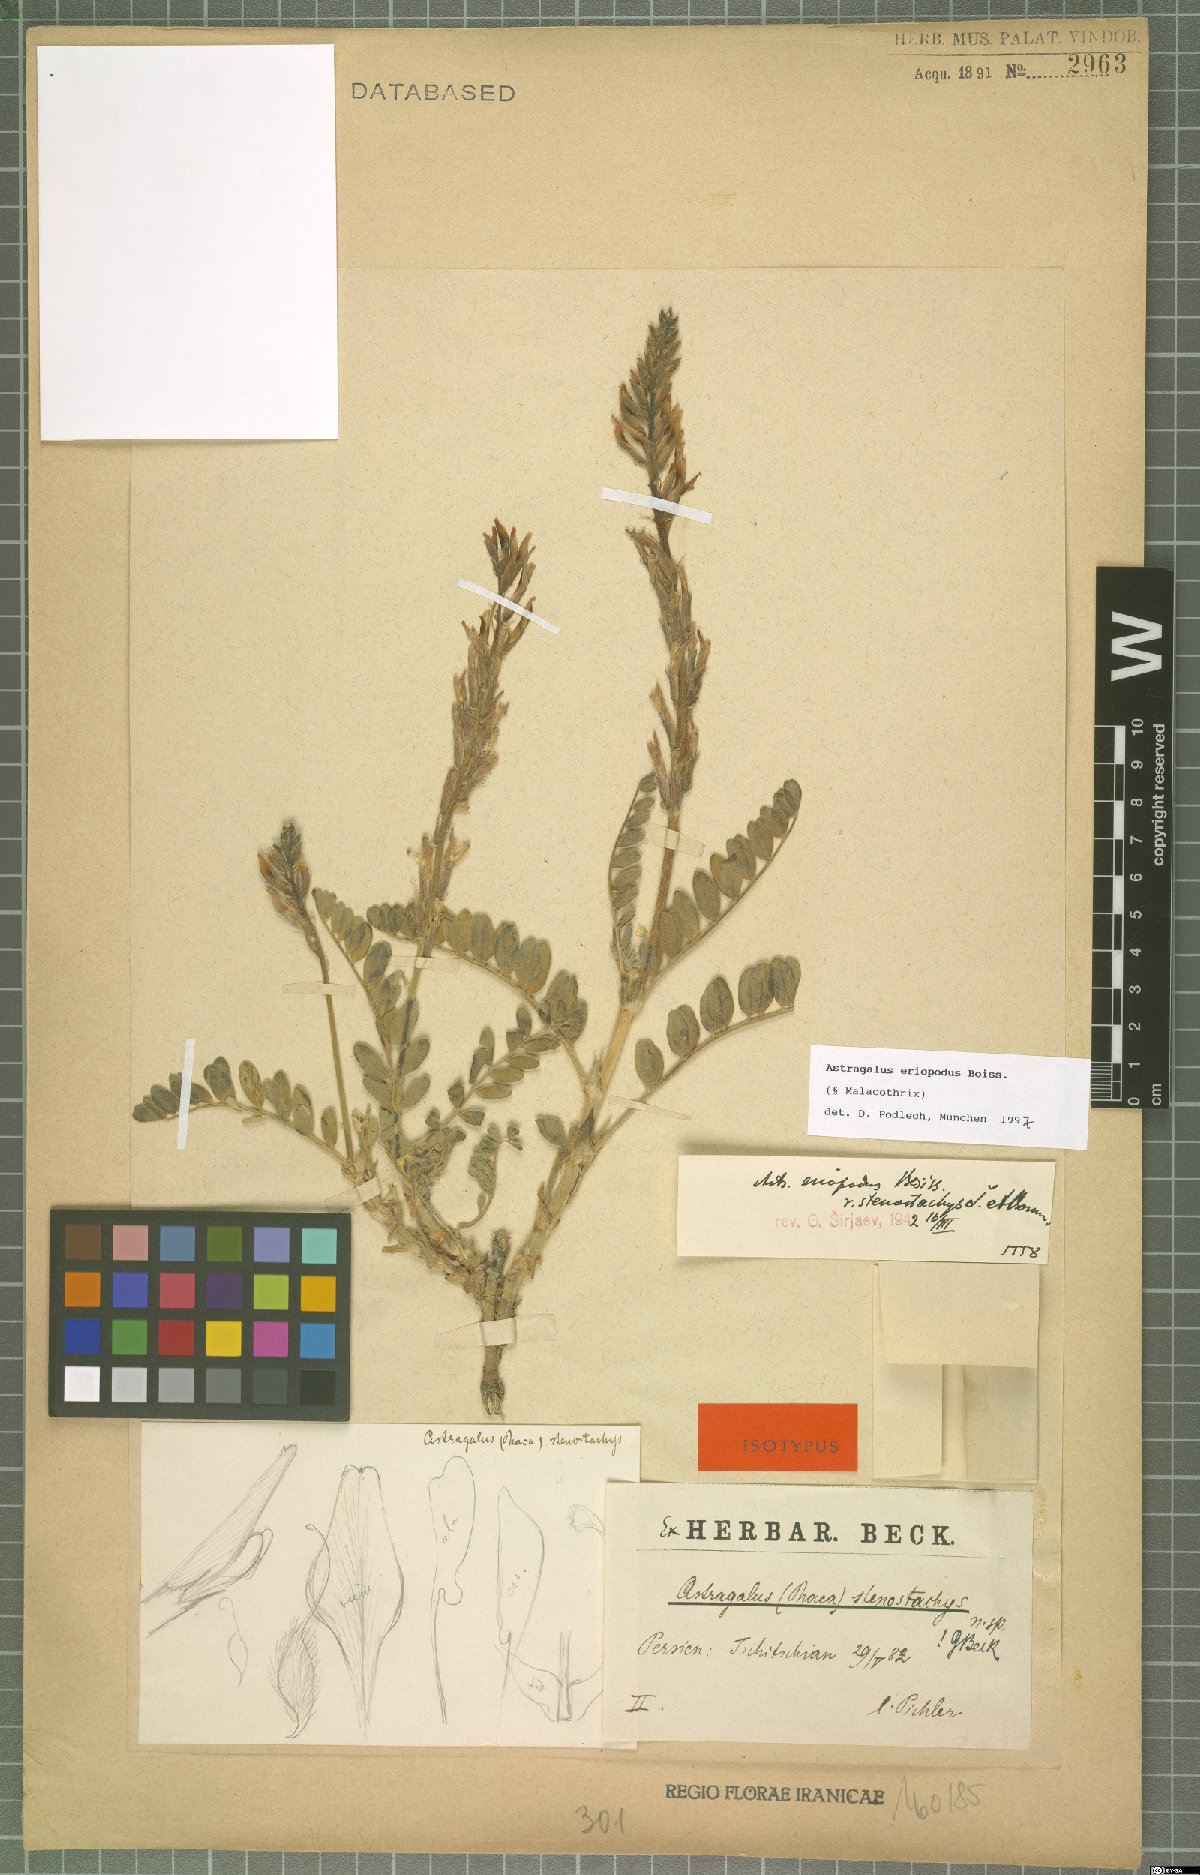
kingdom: Plantae
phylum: Tracheophyta
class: Magnoliopsida
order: Fabales
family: Fabaceae
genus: Astragalus
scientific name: Astragalus eriopodus
